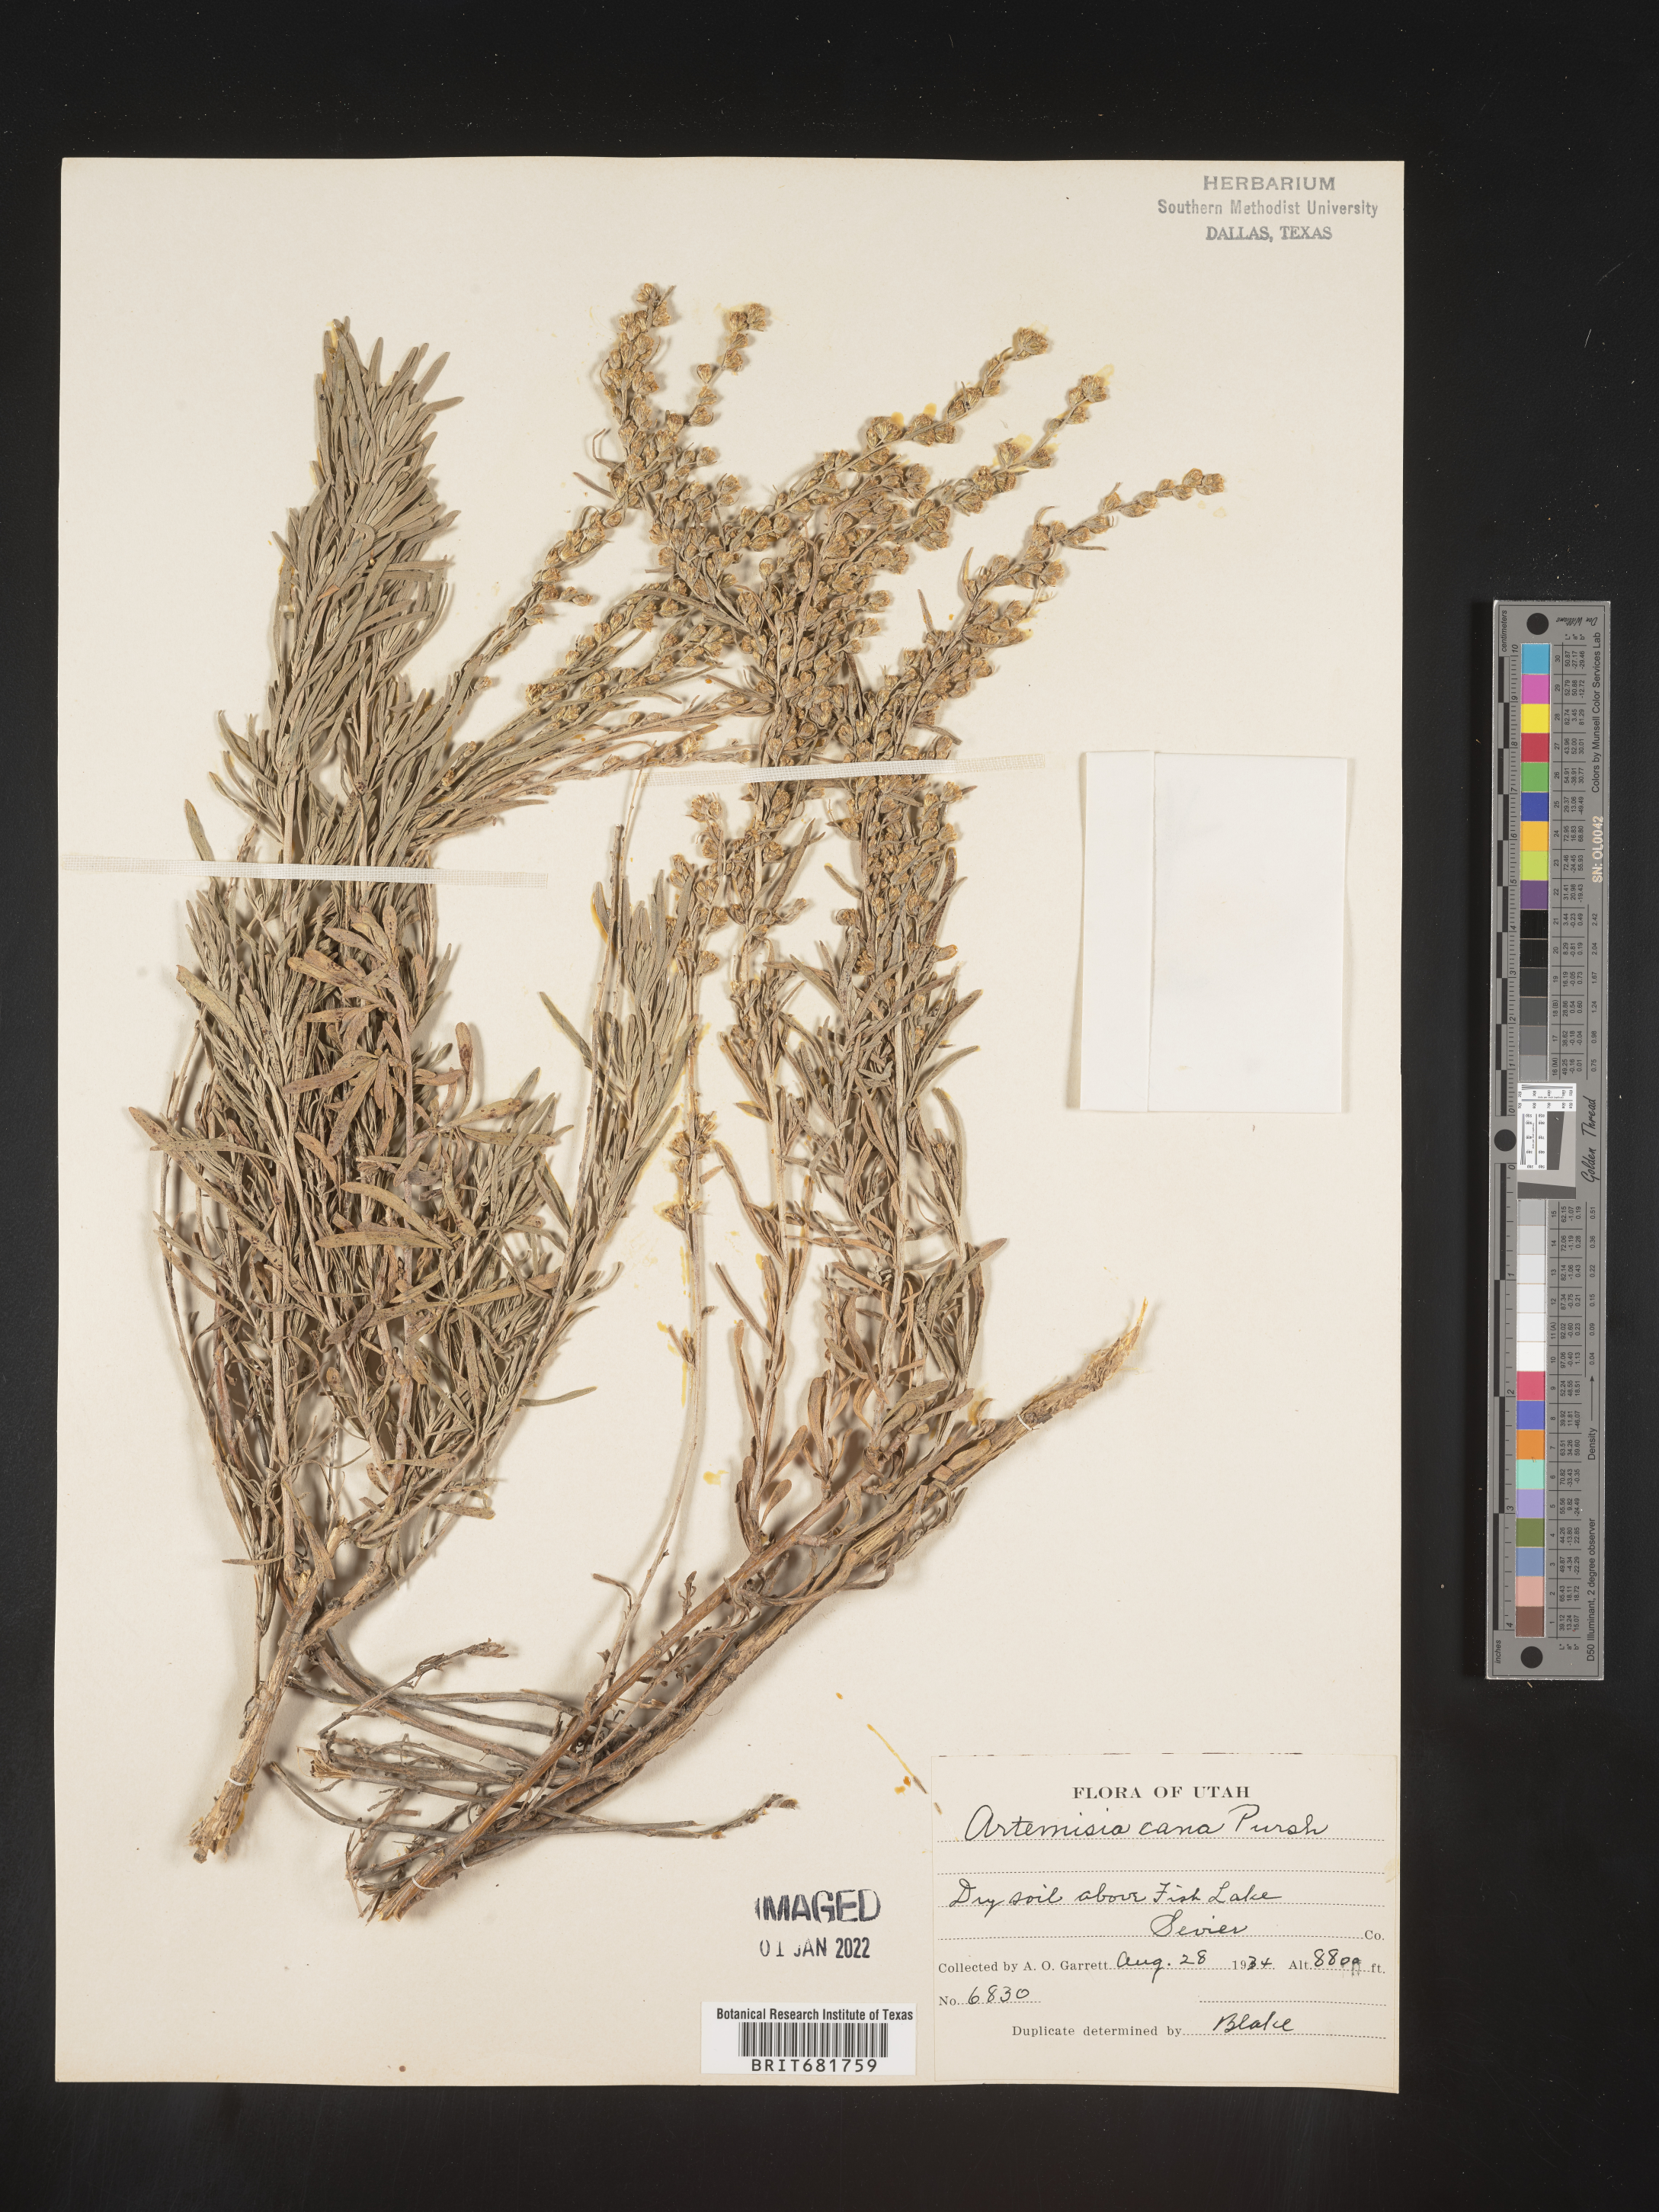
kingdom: Plantae
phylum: Tracheophyta
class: Magnoliopsida
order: Asterales
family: Asteraceae
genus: Artemisia
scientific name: Artemisia cana
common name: Silver sagebrush
